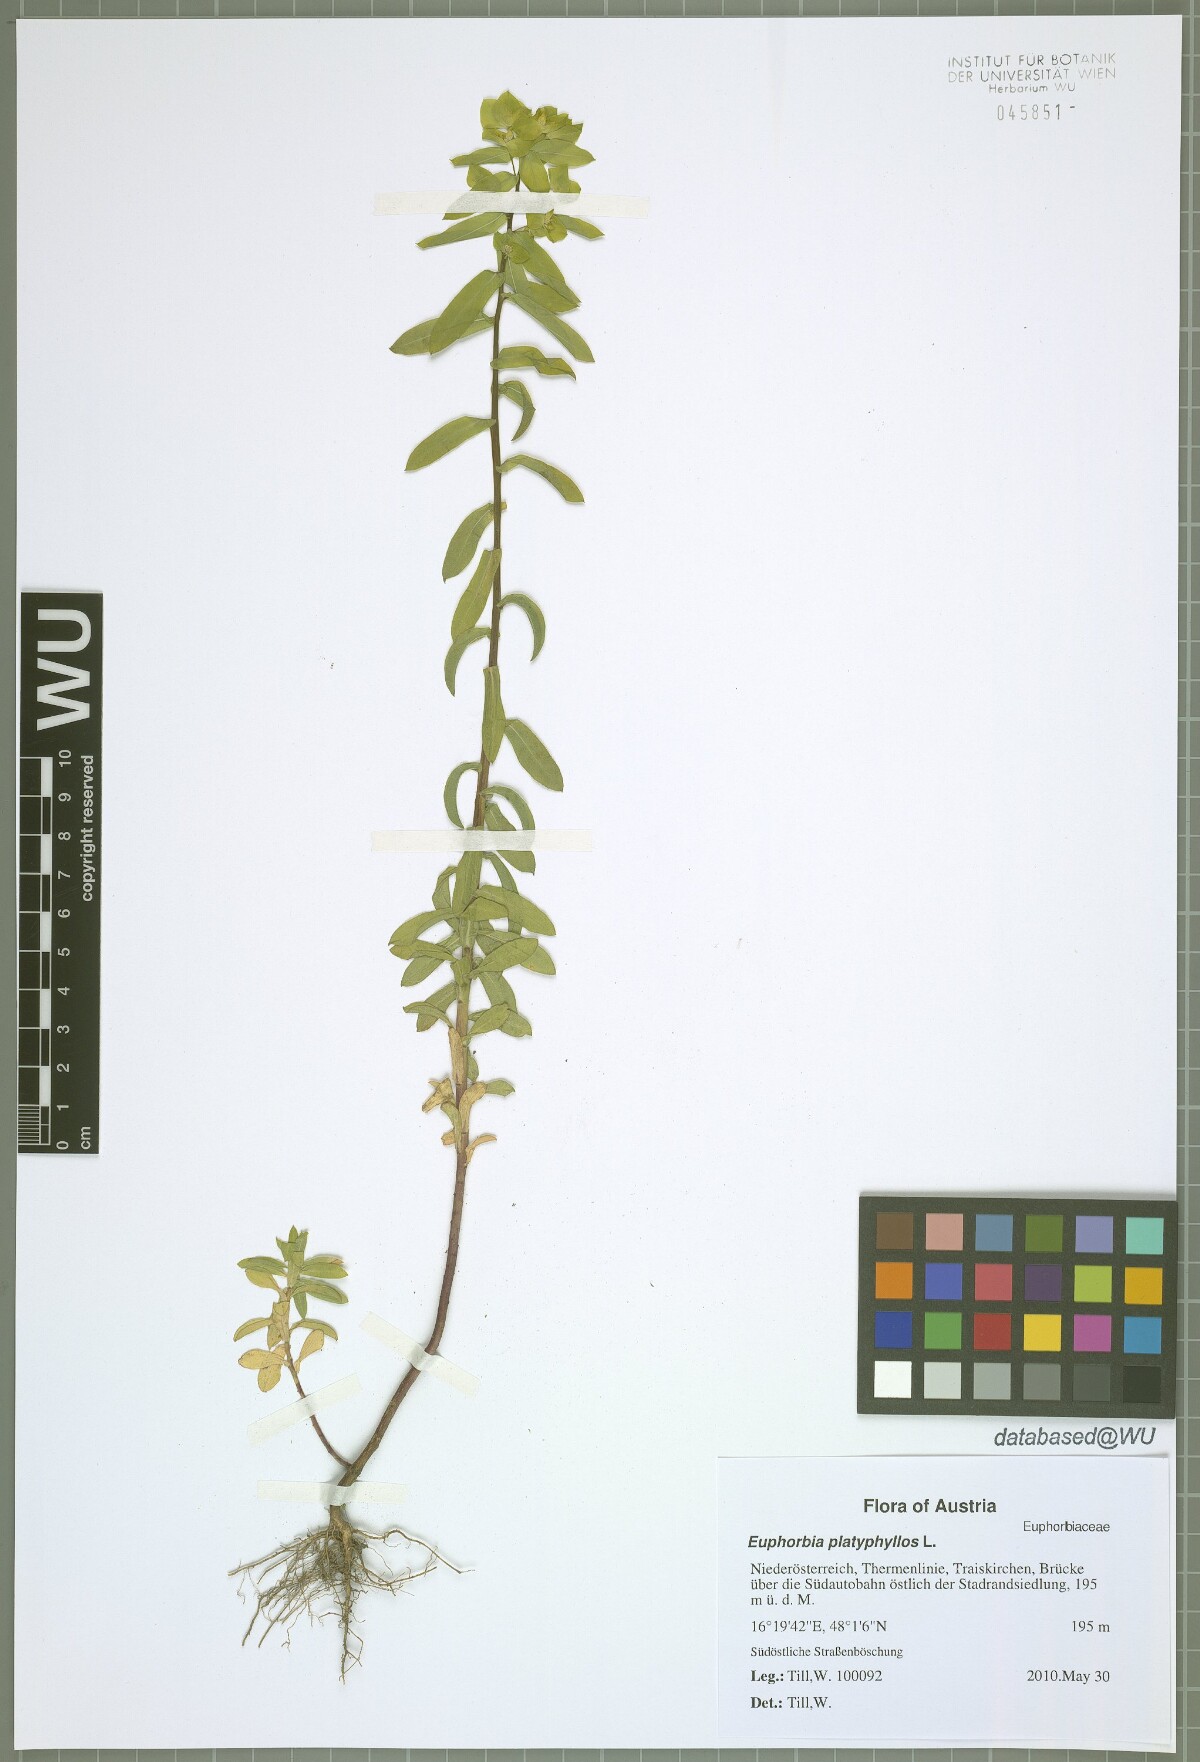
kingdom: Plantae
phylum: Tracheophyta
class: Magnoliopsida
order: Malpighiales
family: Euphorbiaceae
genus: Euphorbia
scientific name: Euphorbia platyphyllos
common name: Broad-leaved spurge
